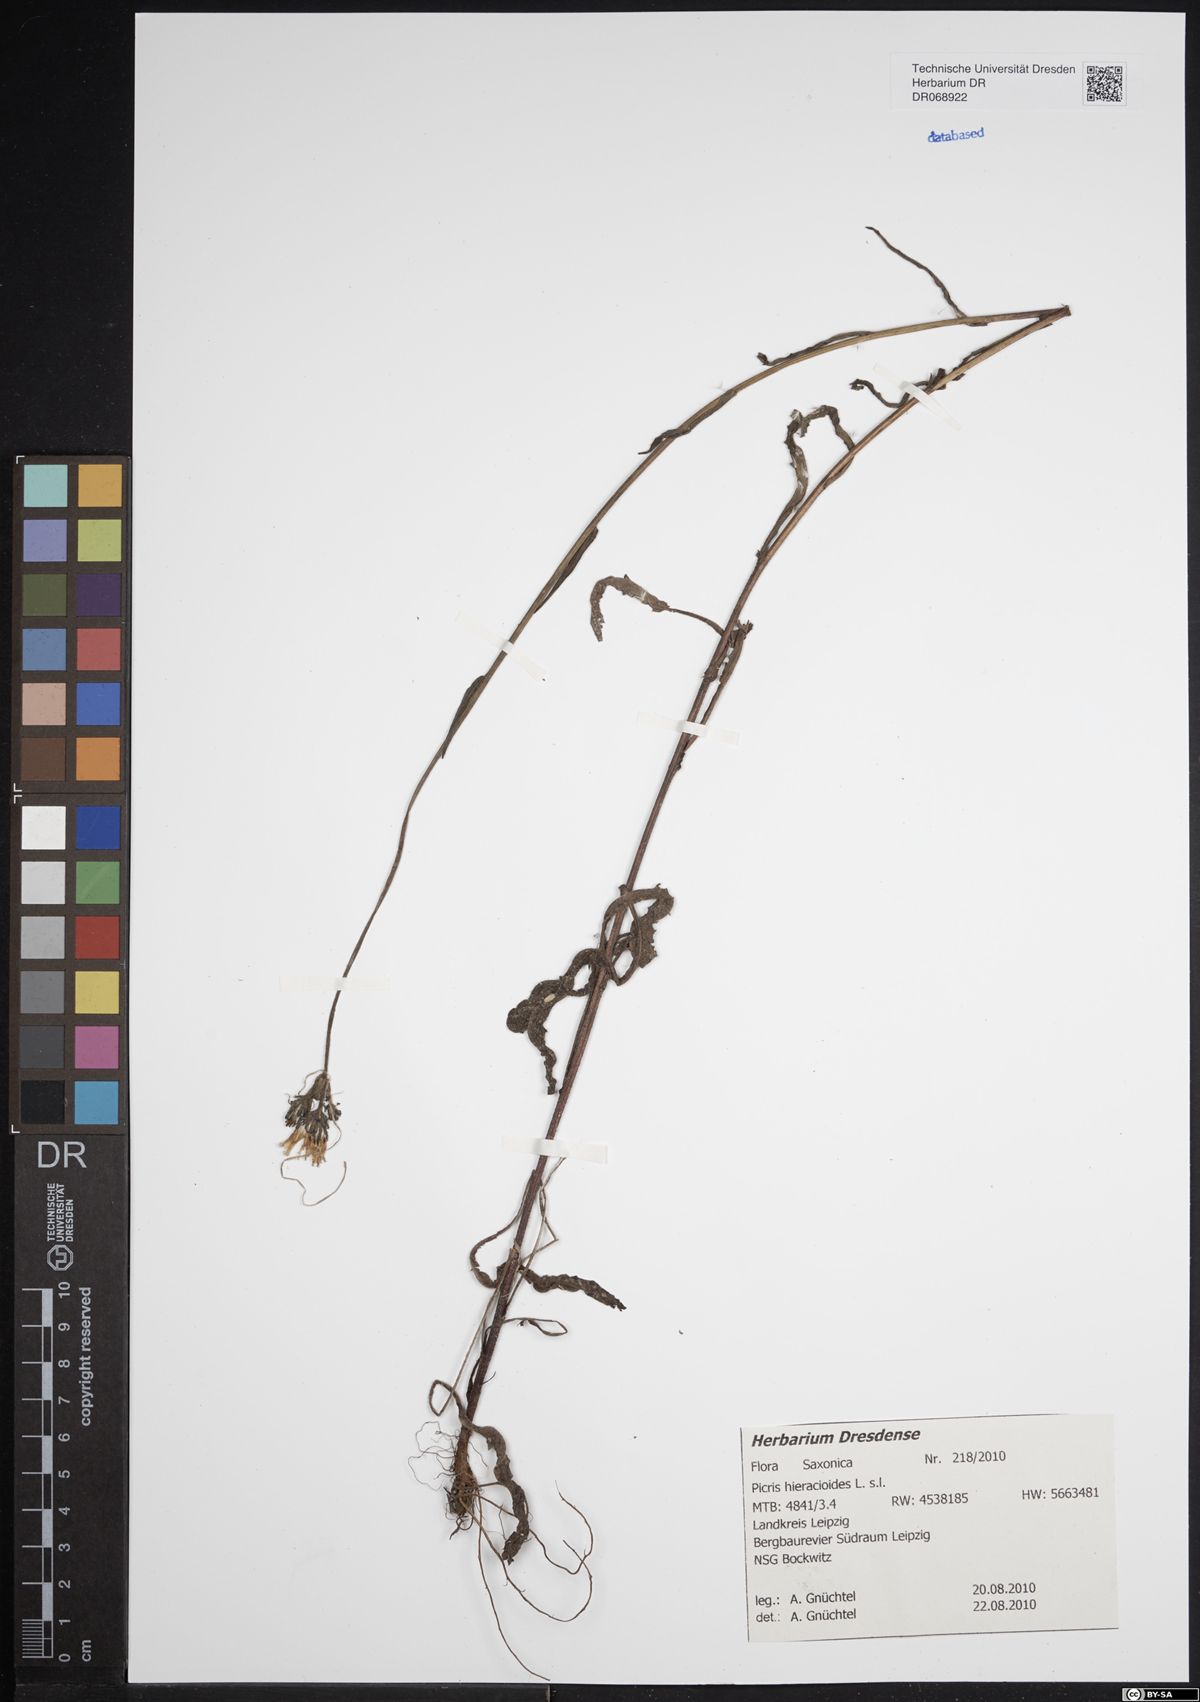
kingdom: Plantae
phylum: Tracheophyta
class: Magnoliopsida
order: Asterales
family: Asteraceae
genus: Picris
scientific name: Picris hieracioides
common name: Hawkweed oxtongue
